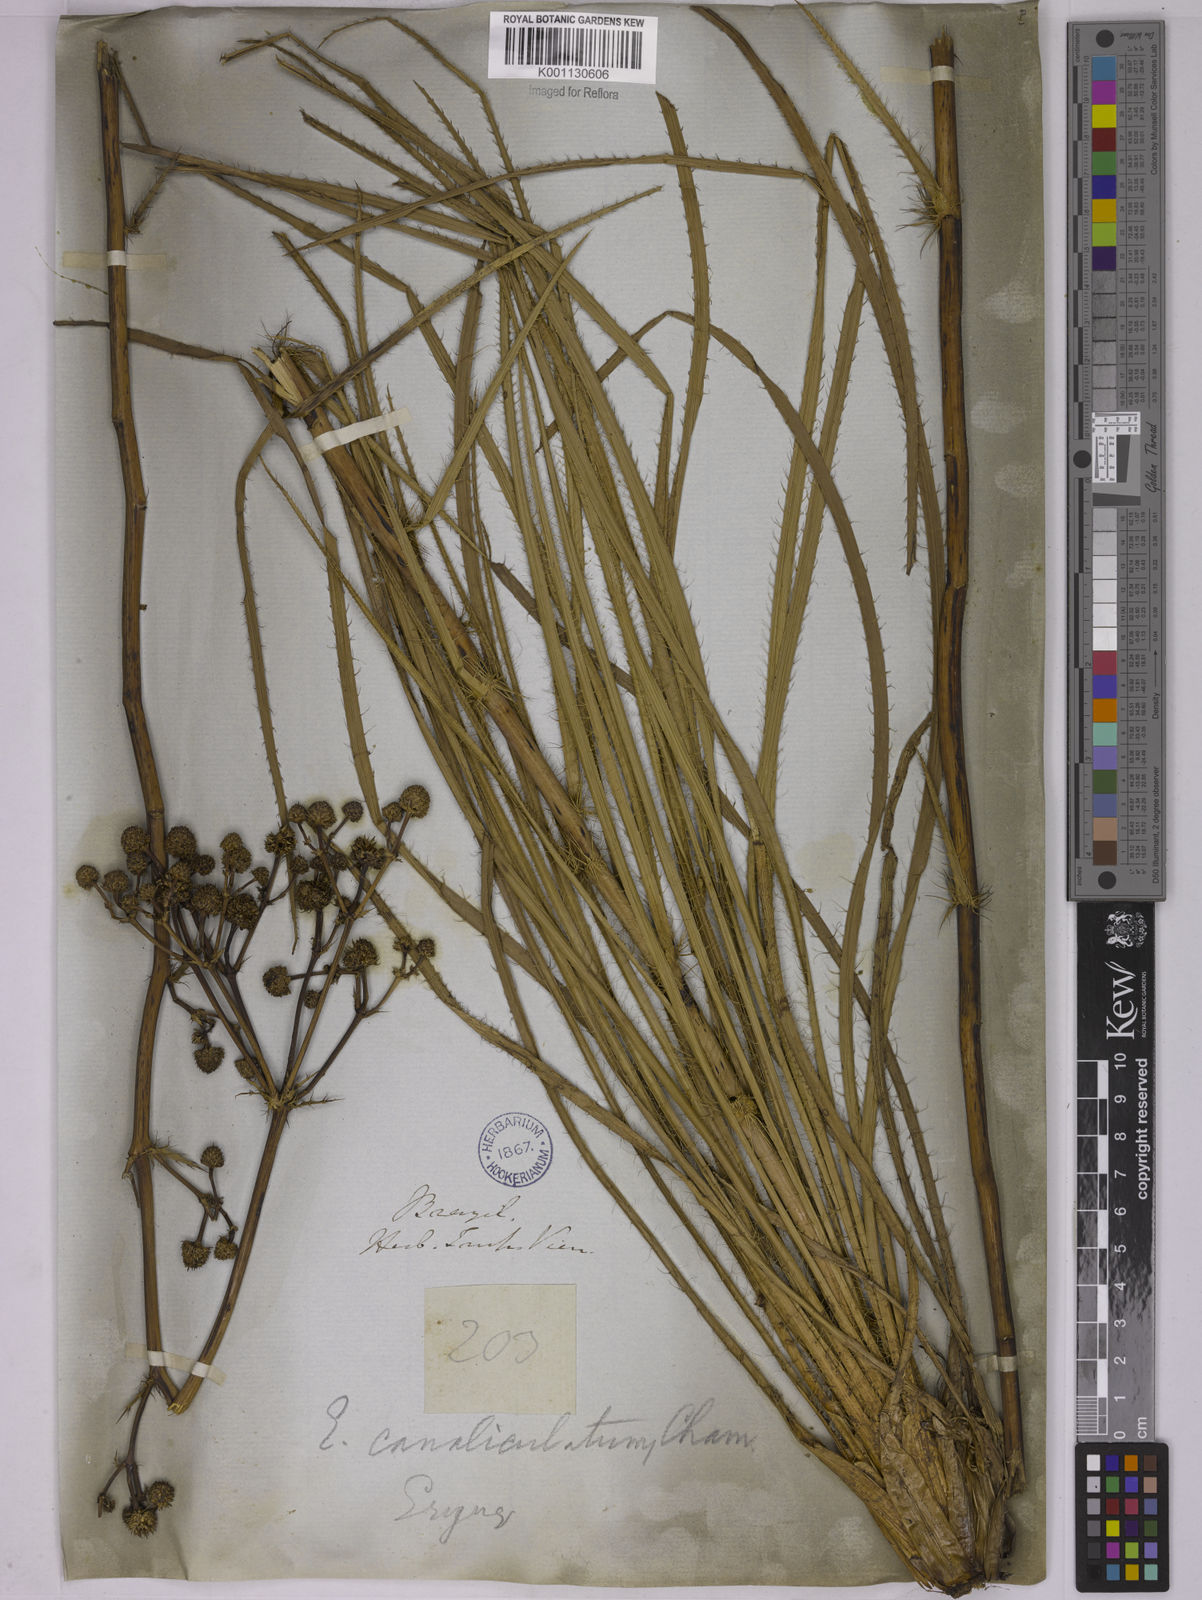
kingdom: Plantae
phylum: Tracheophyta
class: Magnoliopsida
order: Apiales
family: Apiaceae
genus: Eryngium
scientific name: Eryngium canaliculatum
